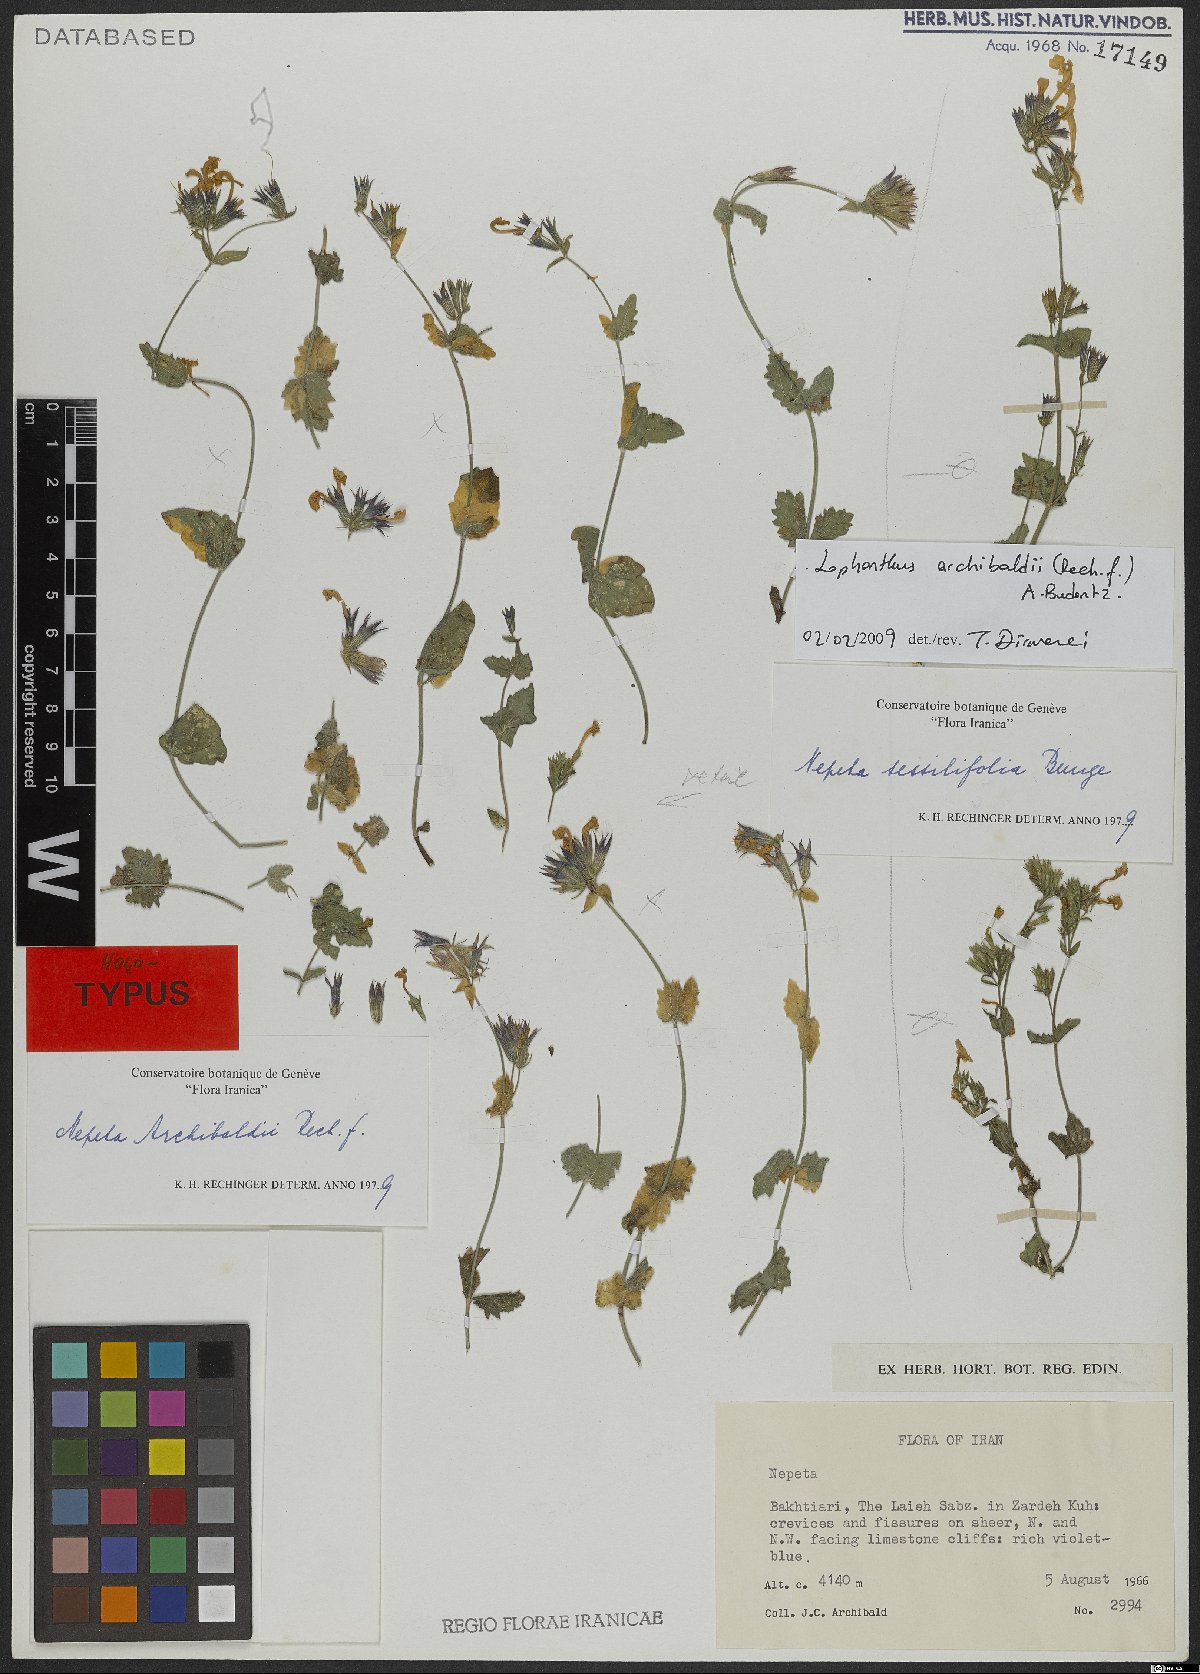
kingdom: Plantae
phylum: Tracheophyta
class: Magnoliopsida
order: Lamiales
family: Lamiaceae
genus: Nepeta
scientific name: Nepeta archibaldii
